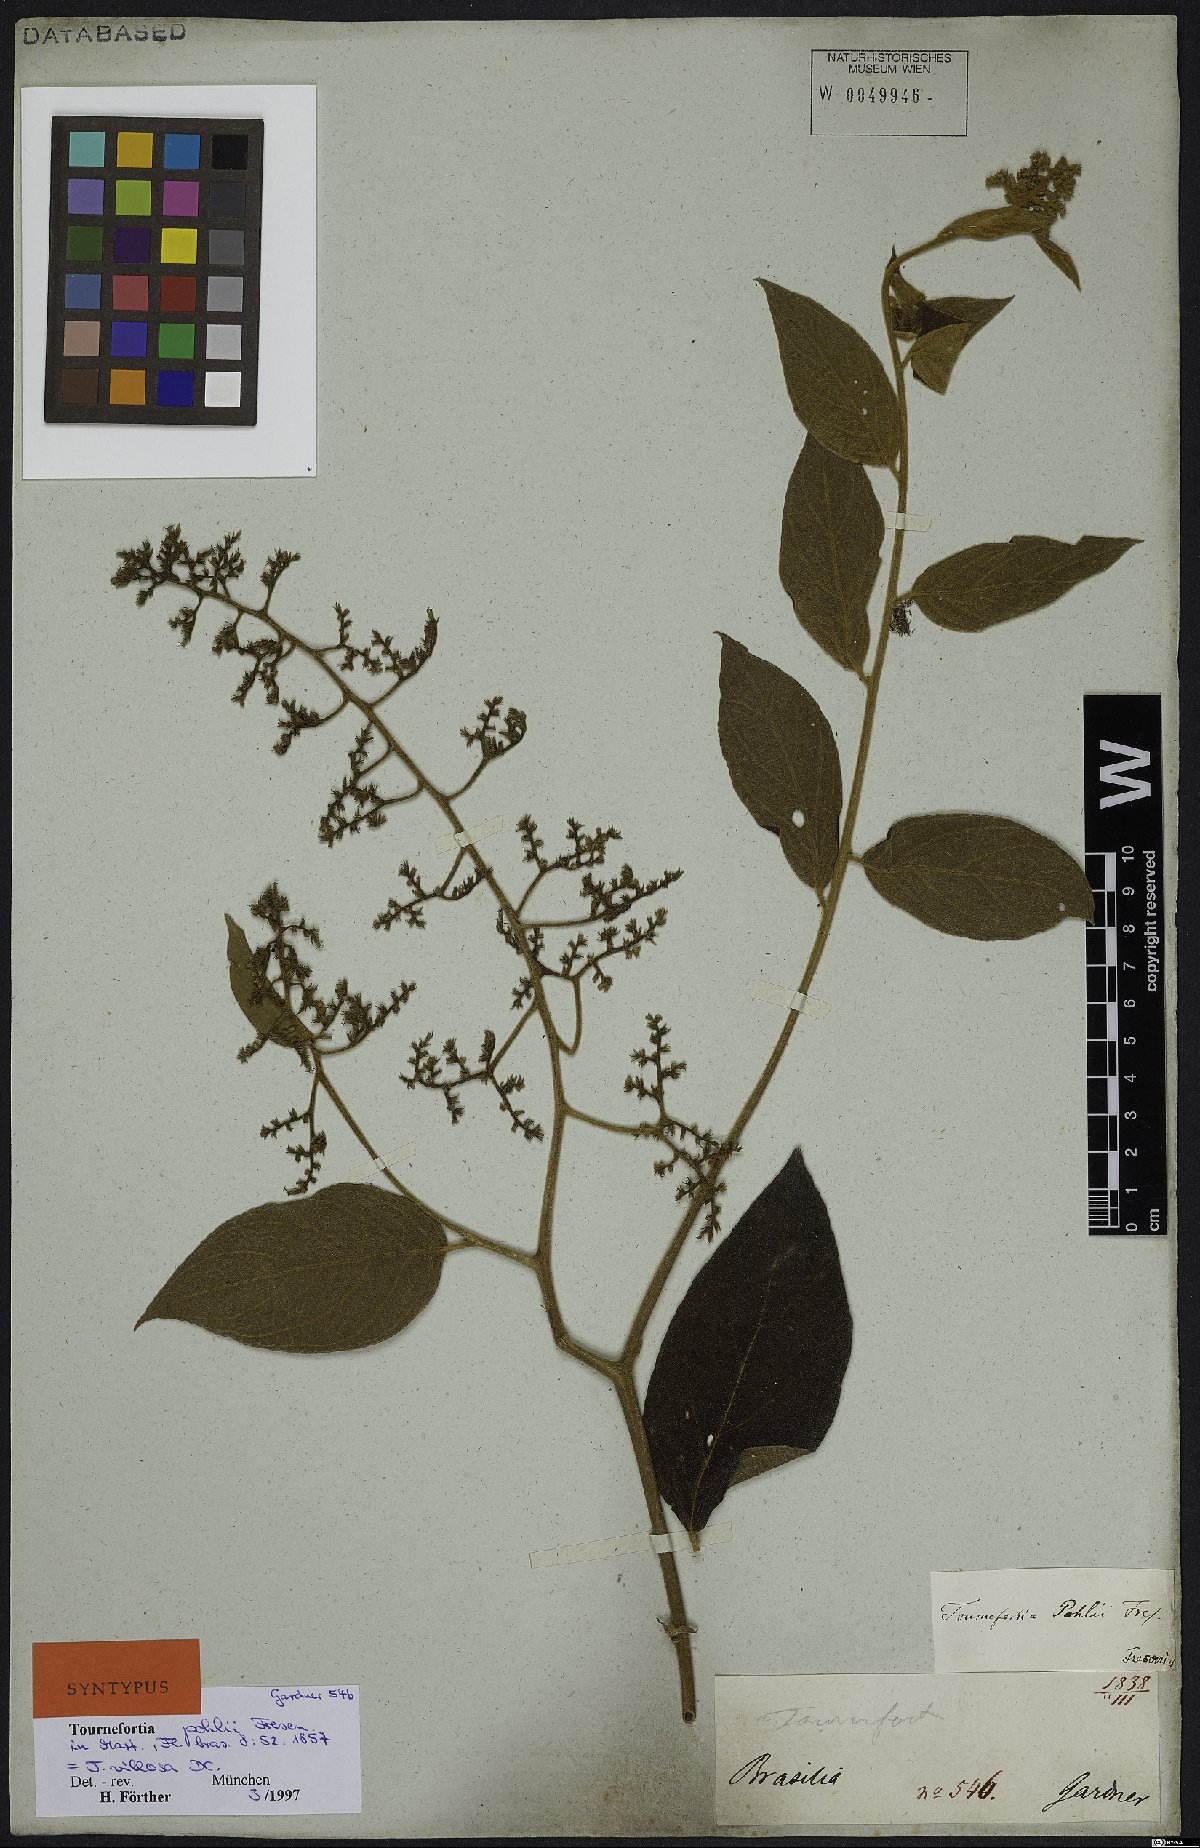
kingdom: Plantae
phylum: Tracheophyta
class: Magnoliopsida
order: Boraginales
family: Heliotropiaceae
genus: Tournefortia
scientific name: Tournefortia villosa
